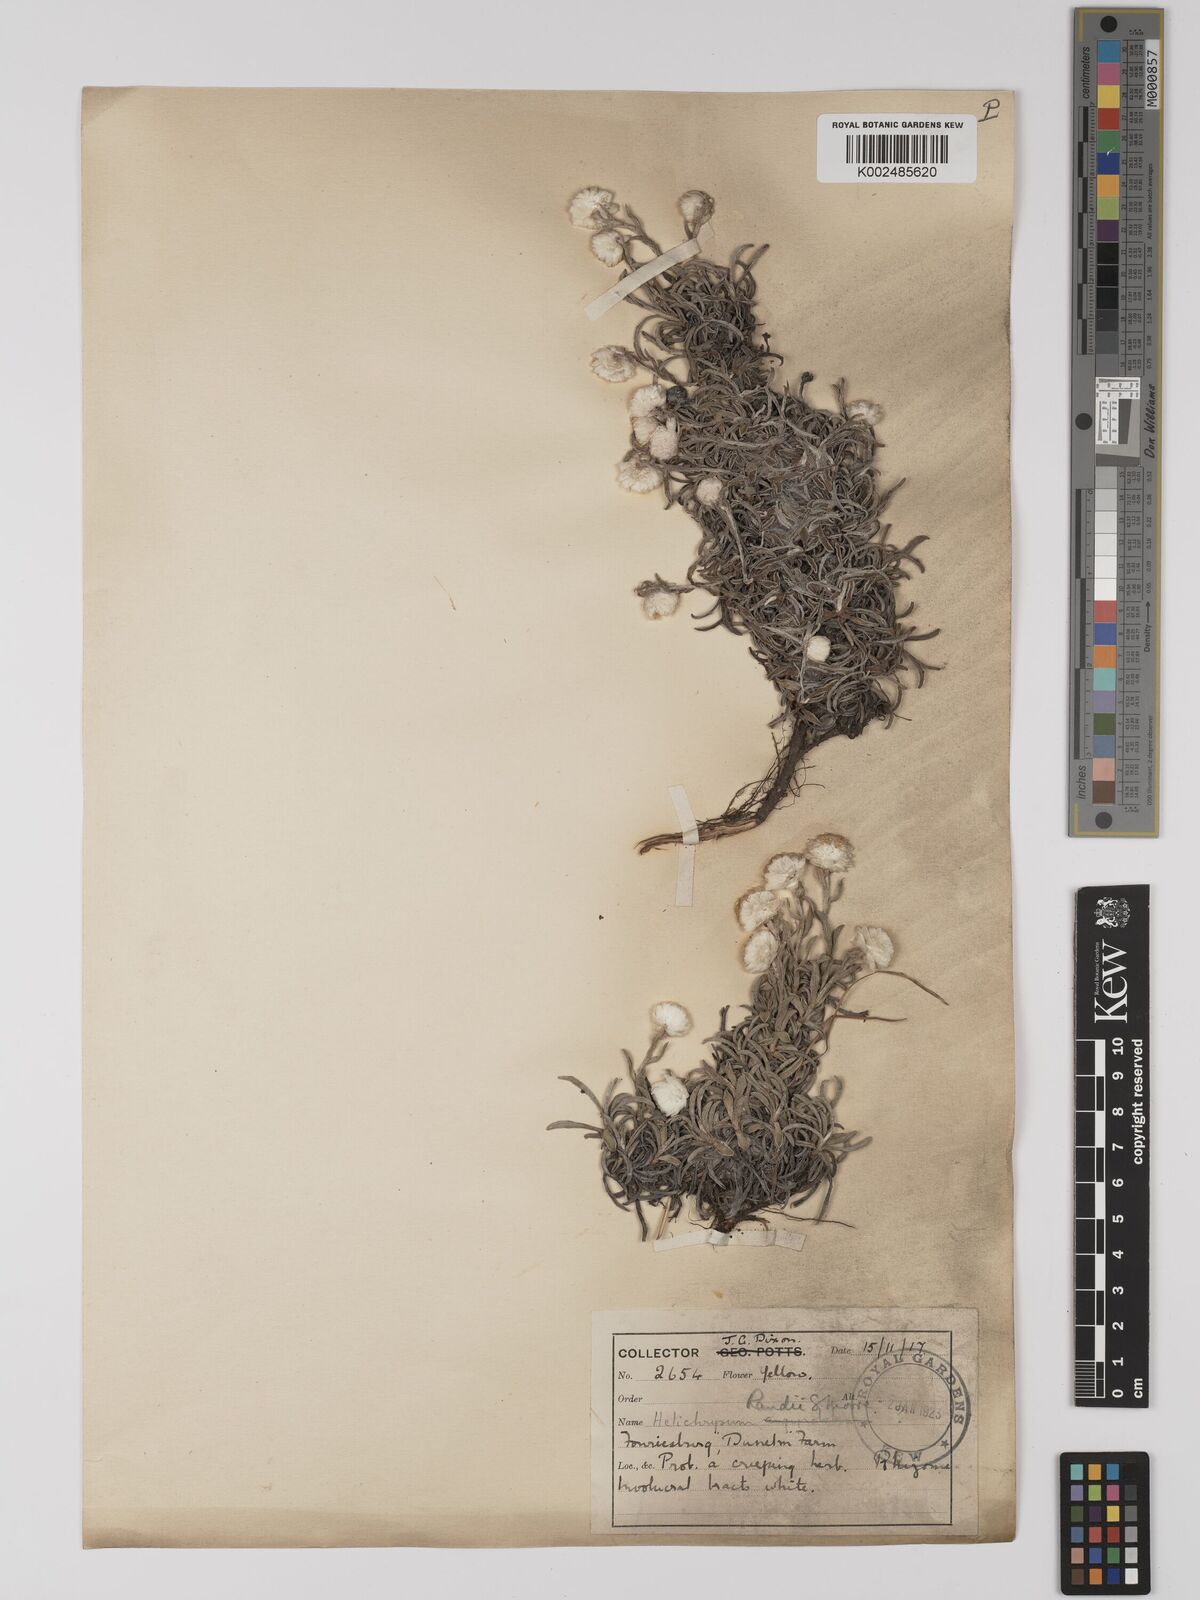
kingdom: Plantae
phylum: Tracheophyta
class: Magnoliopsida
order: Asterales
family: Asteraceae
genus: Helichrysum
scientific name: Helichrysum chionosphaerum
